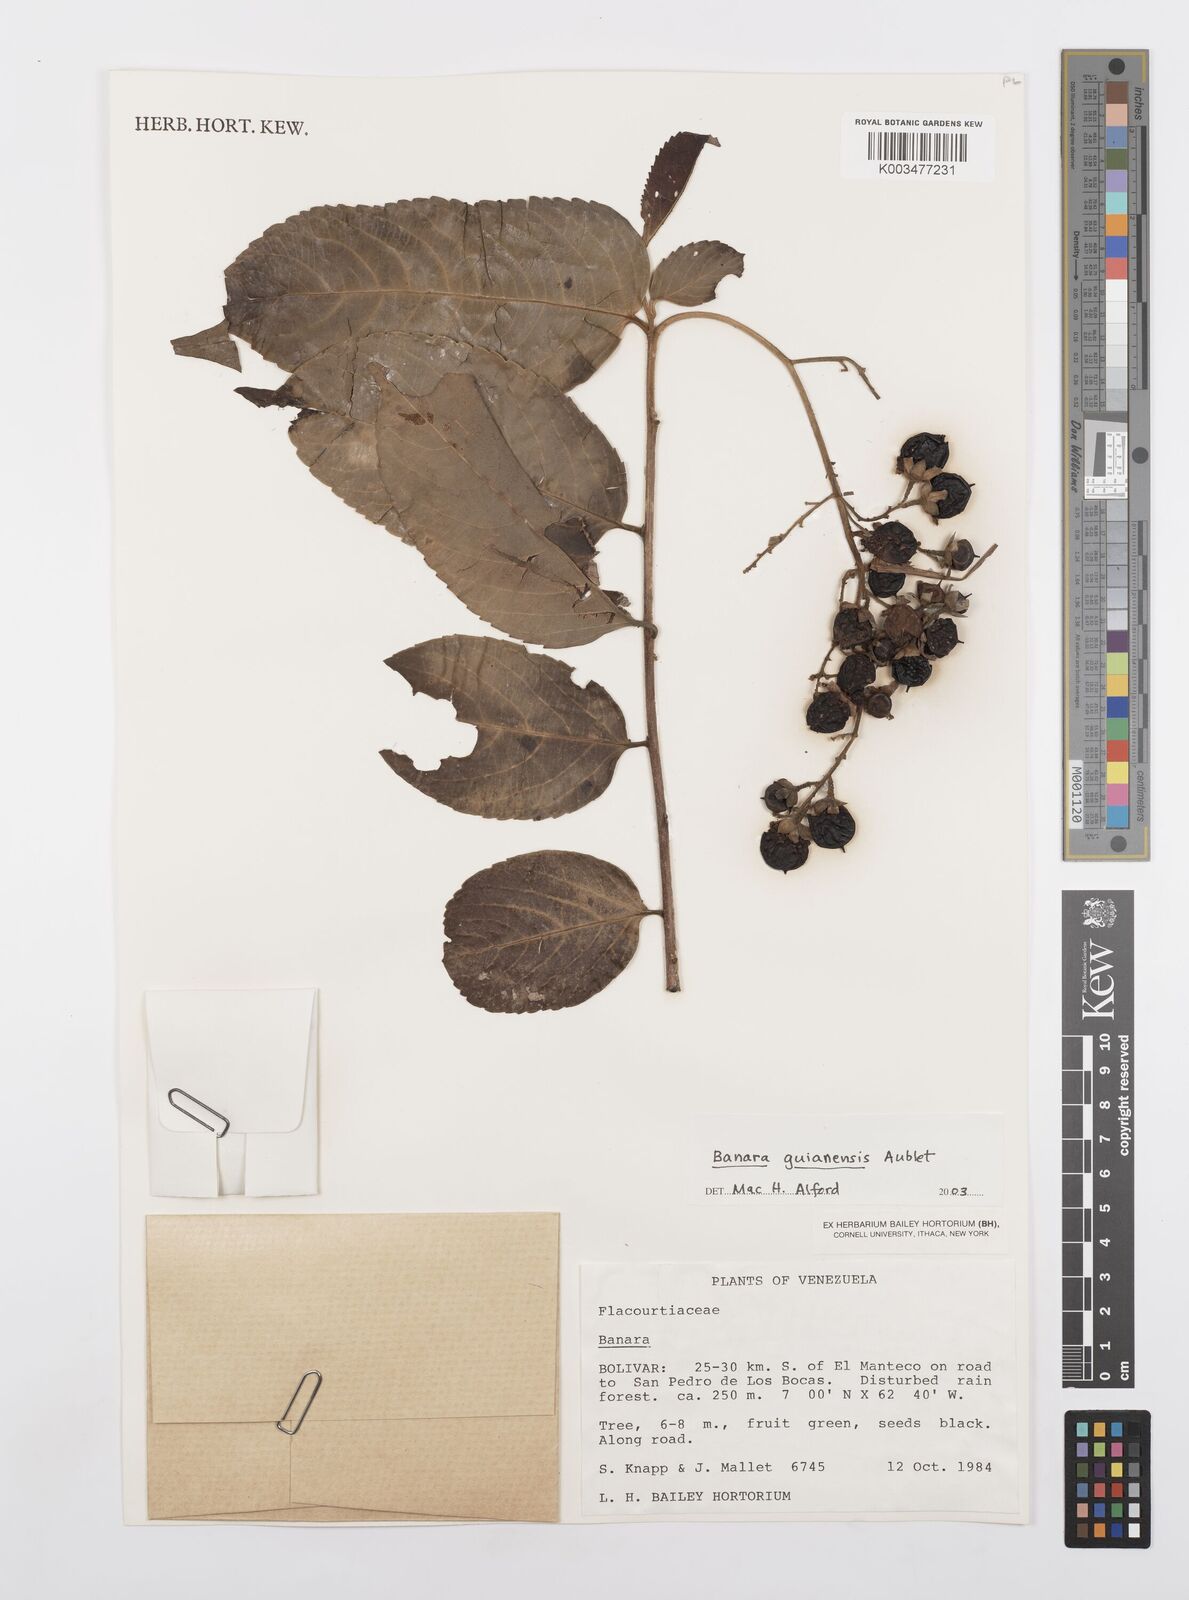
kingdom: Plantae
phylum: Tracheophyta
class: Magnoliopsida
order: Malpighiales
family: Salicaceae
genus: Banara
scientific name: Banara guianensis
